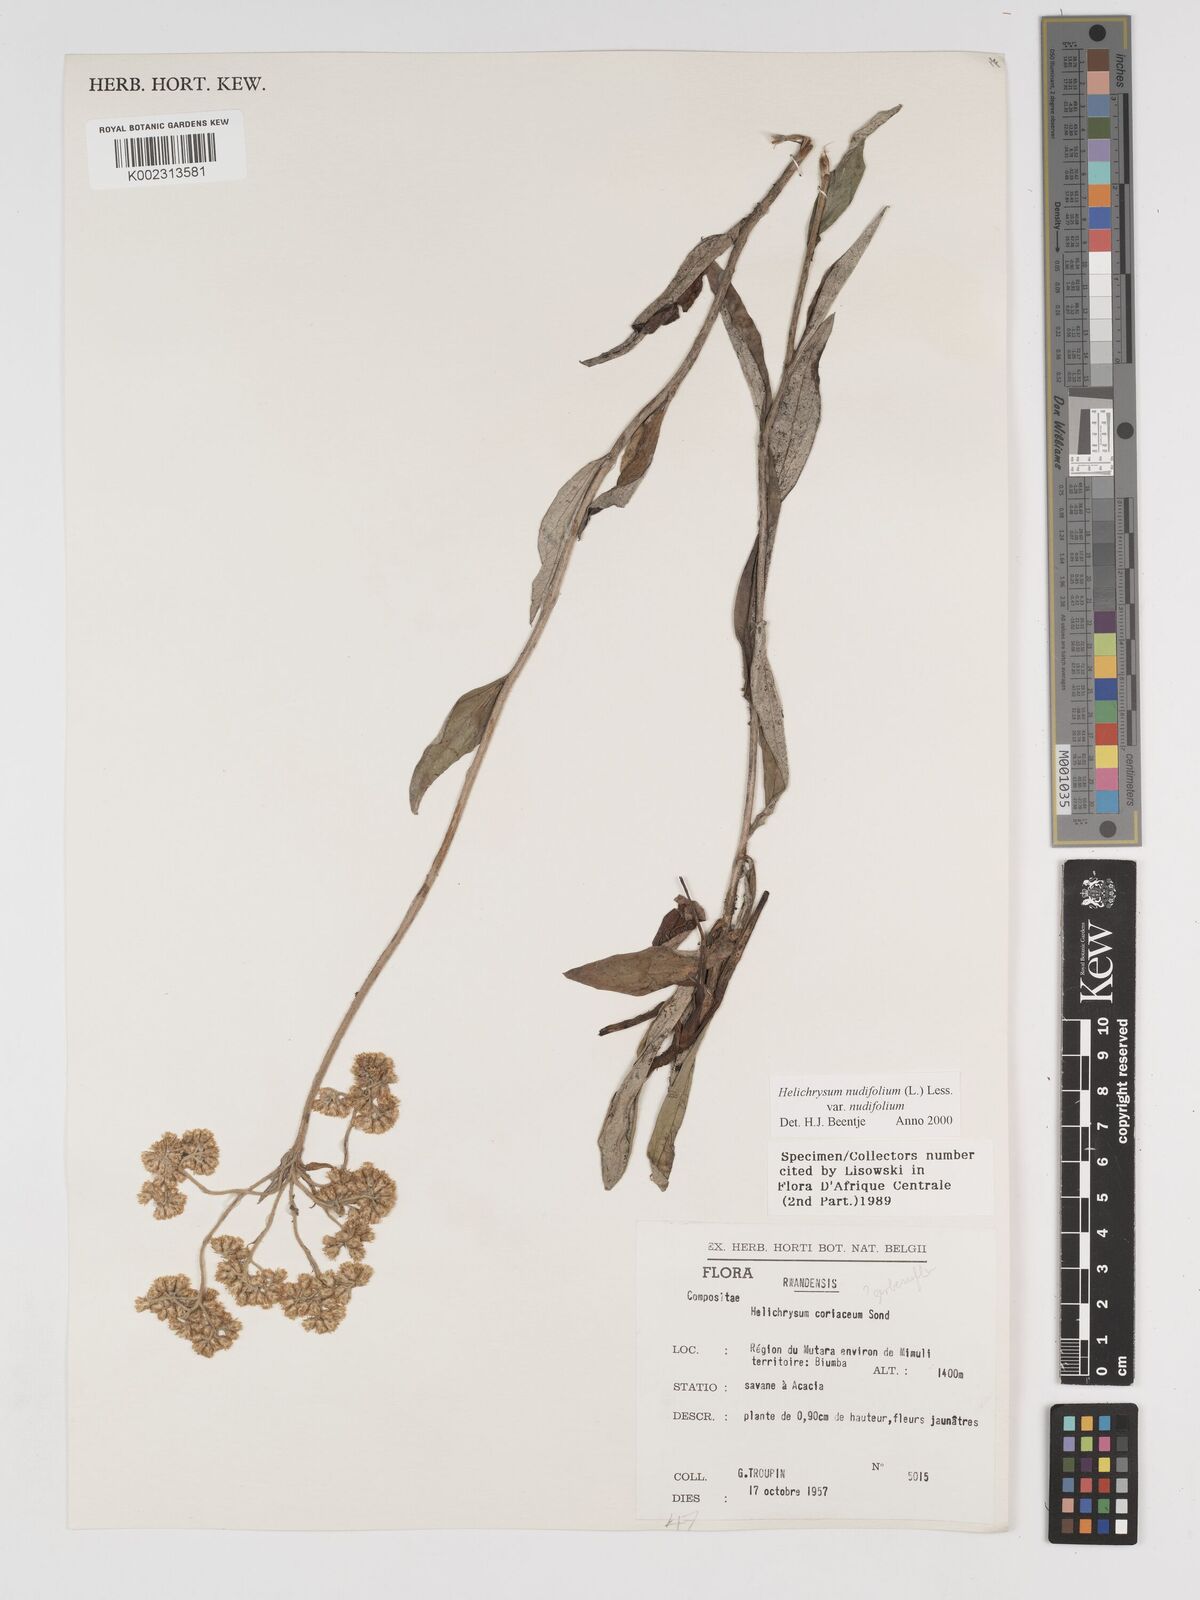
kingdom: Plantae
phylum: Tracheophyta
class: Magnoliopsida
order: Asterales
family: Asteraceae
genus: Helichrysum
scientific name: Helichrysum nudifolium
